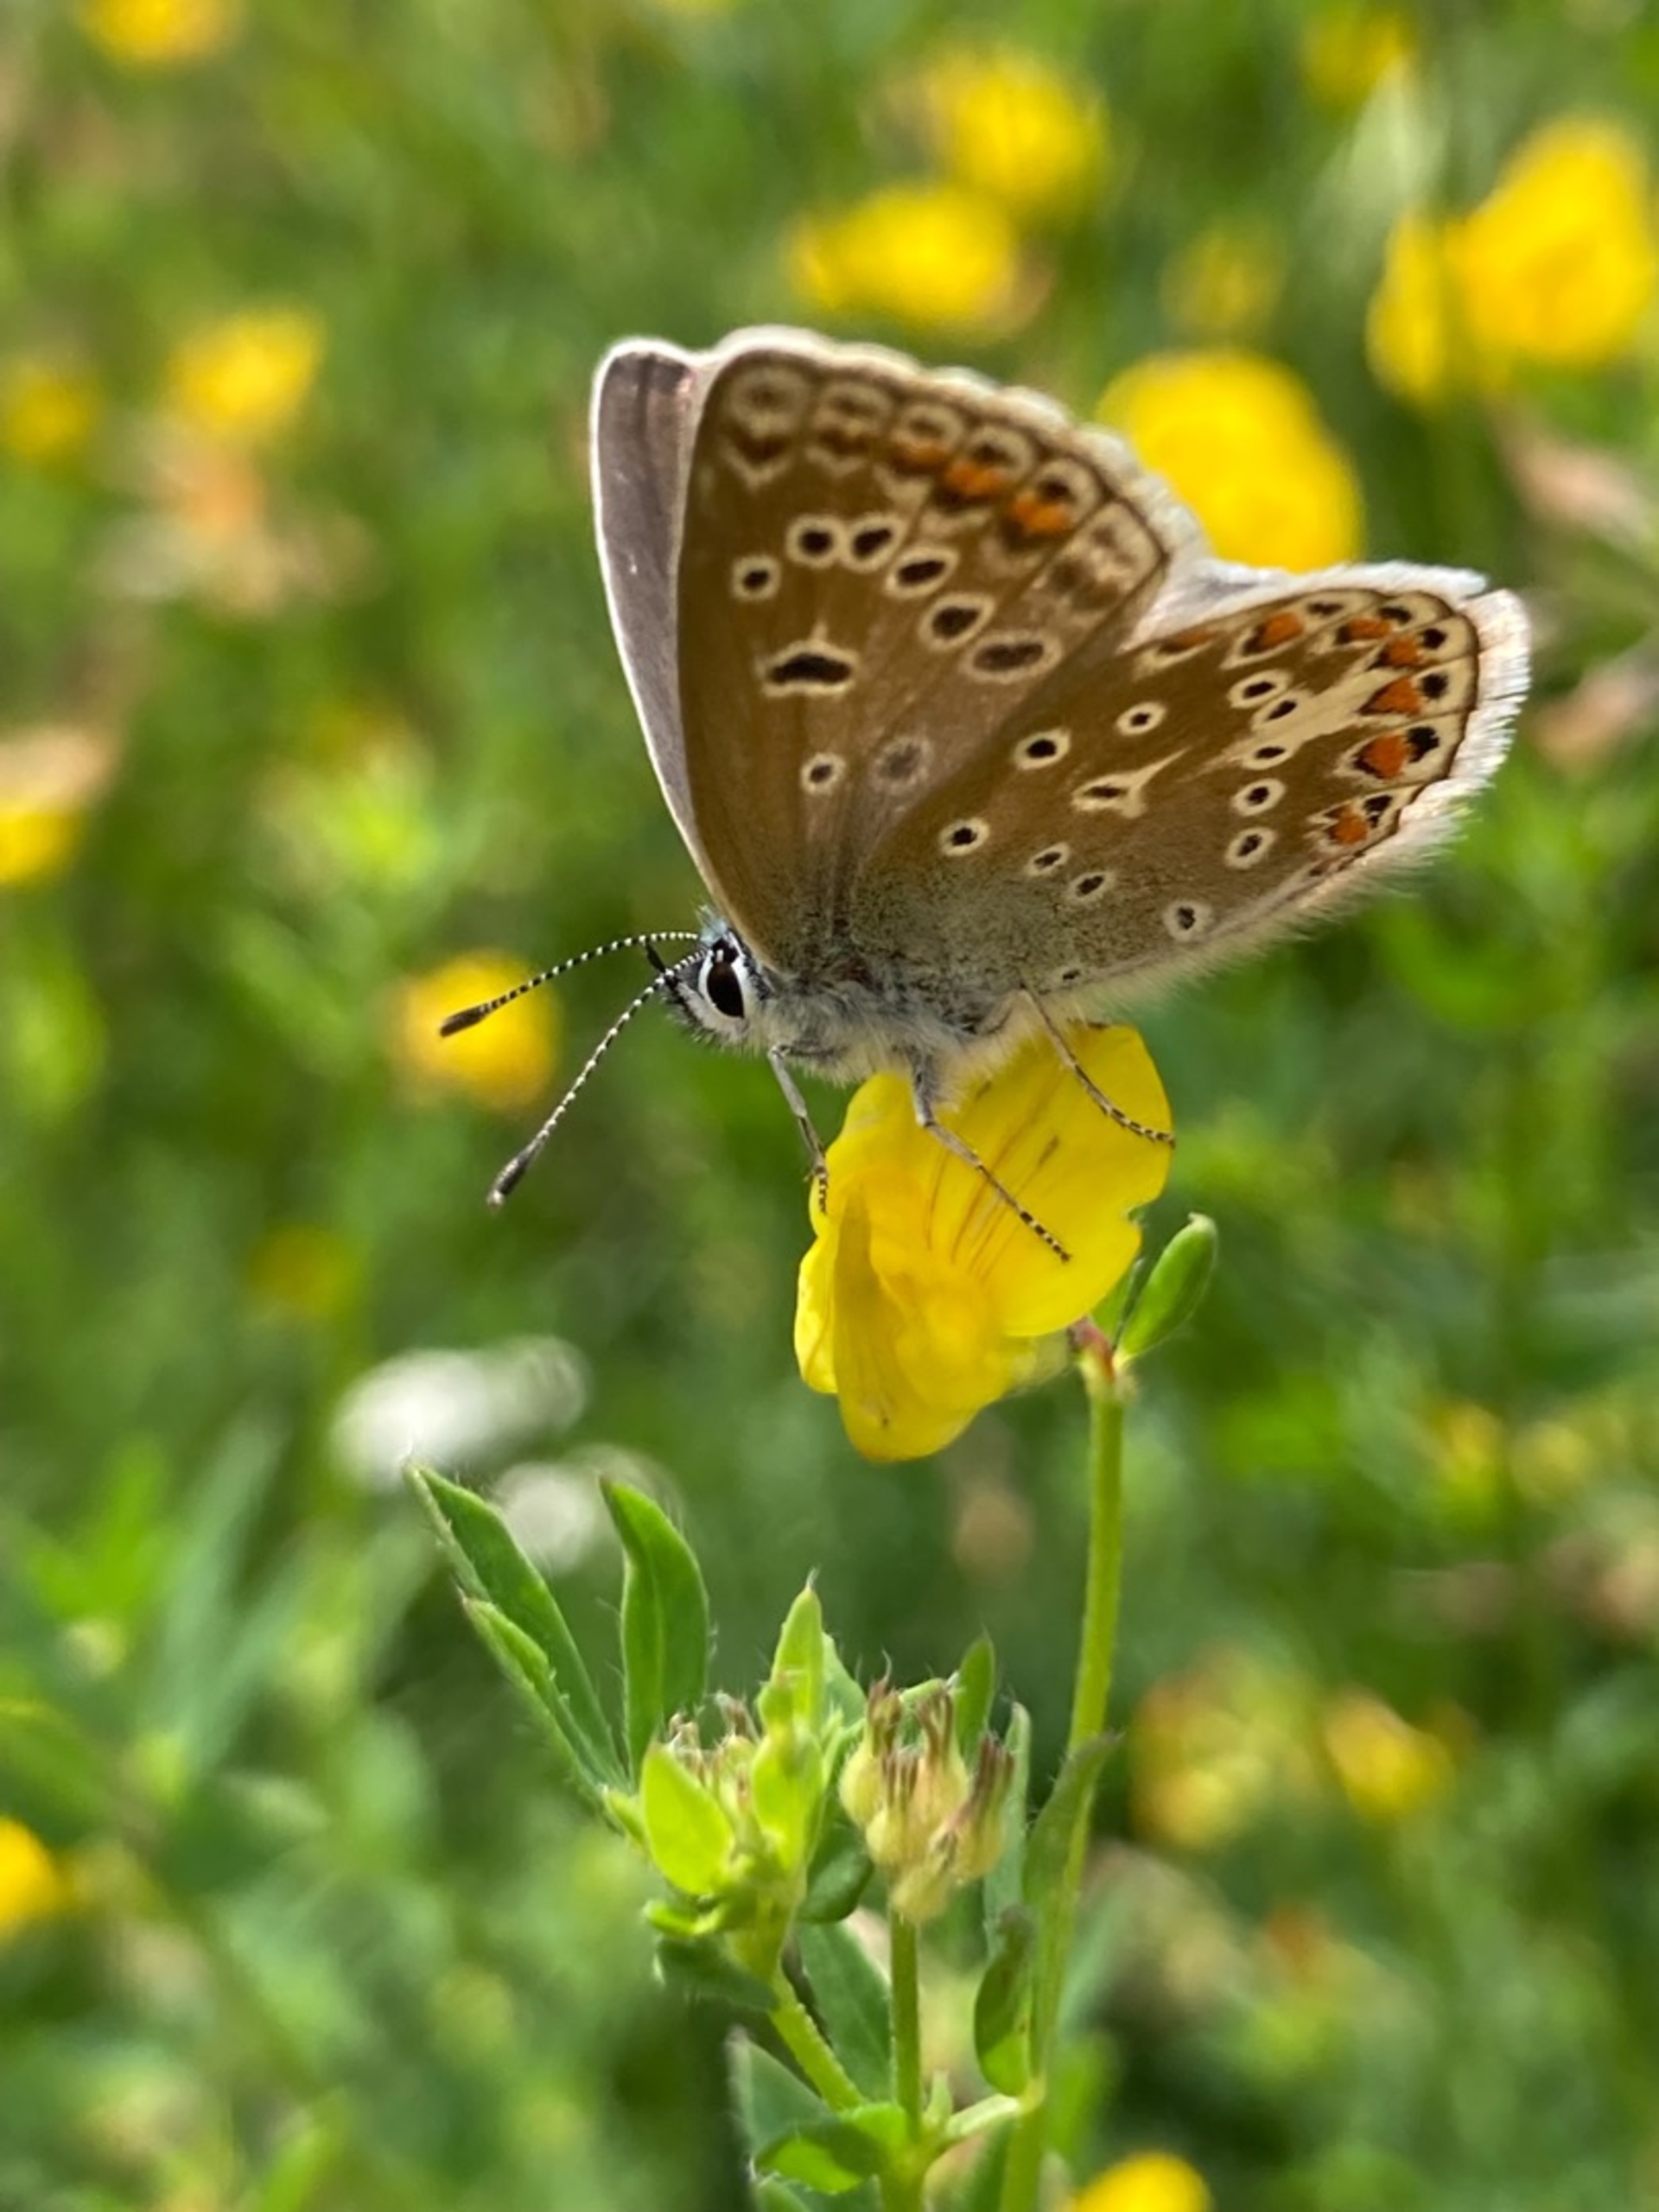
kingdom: Animalia
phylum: Arthropoda
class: Insecta
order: Lepidoptera
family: Lycaenidae
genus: Polyommatus
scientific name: Polyommatus icarus
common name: Almindelig blåfugl
